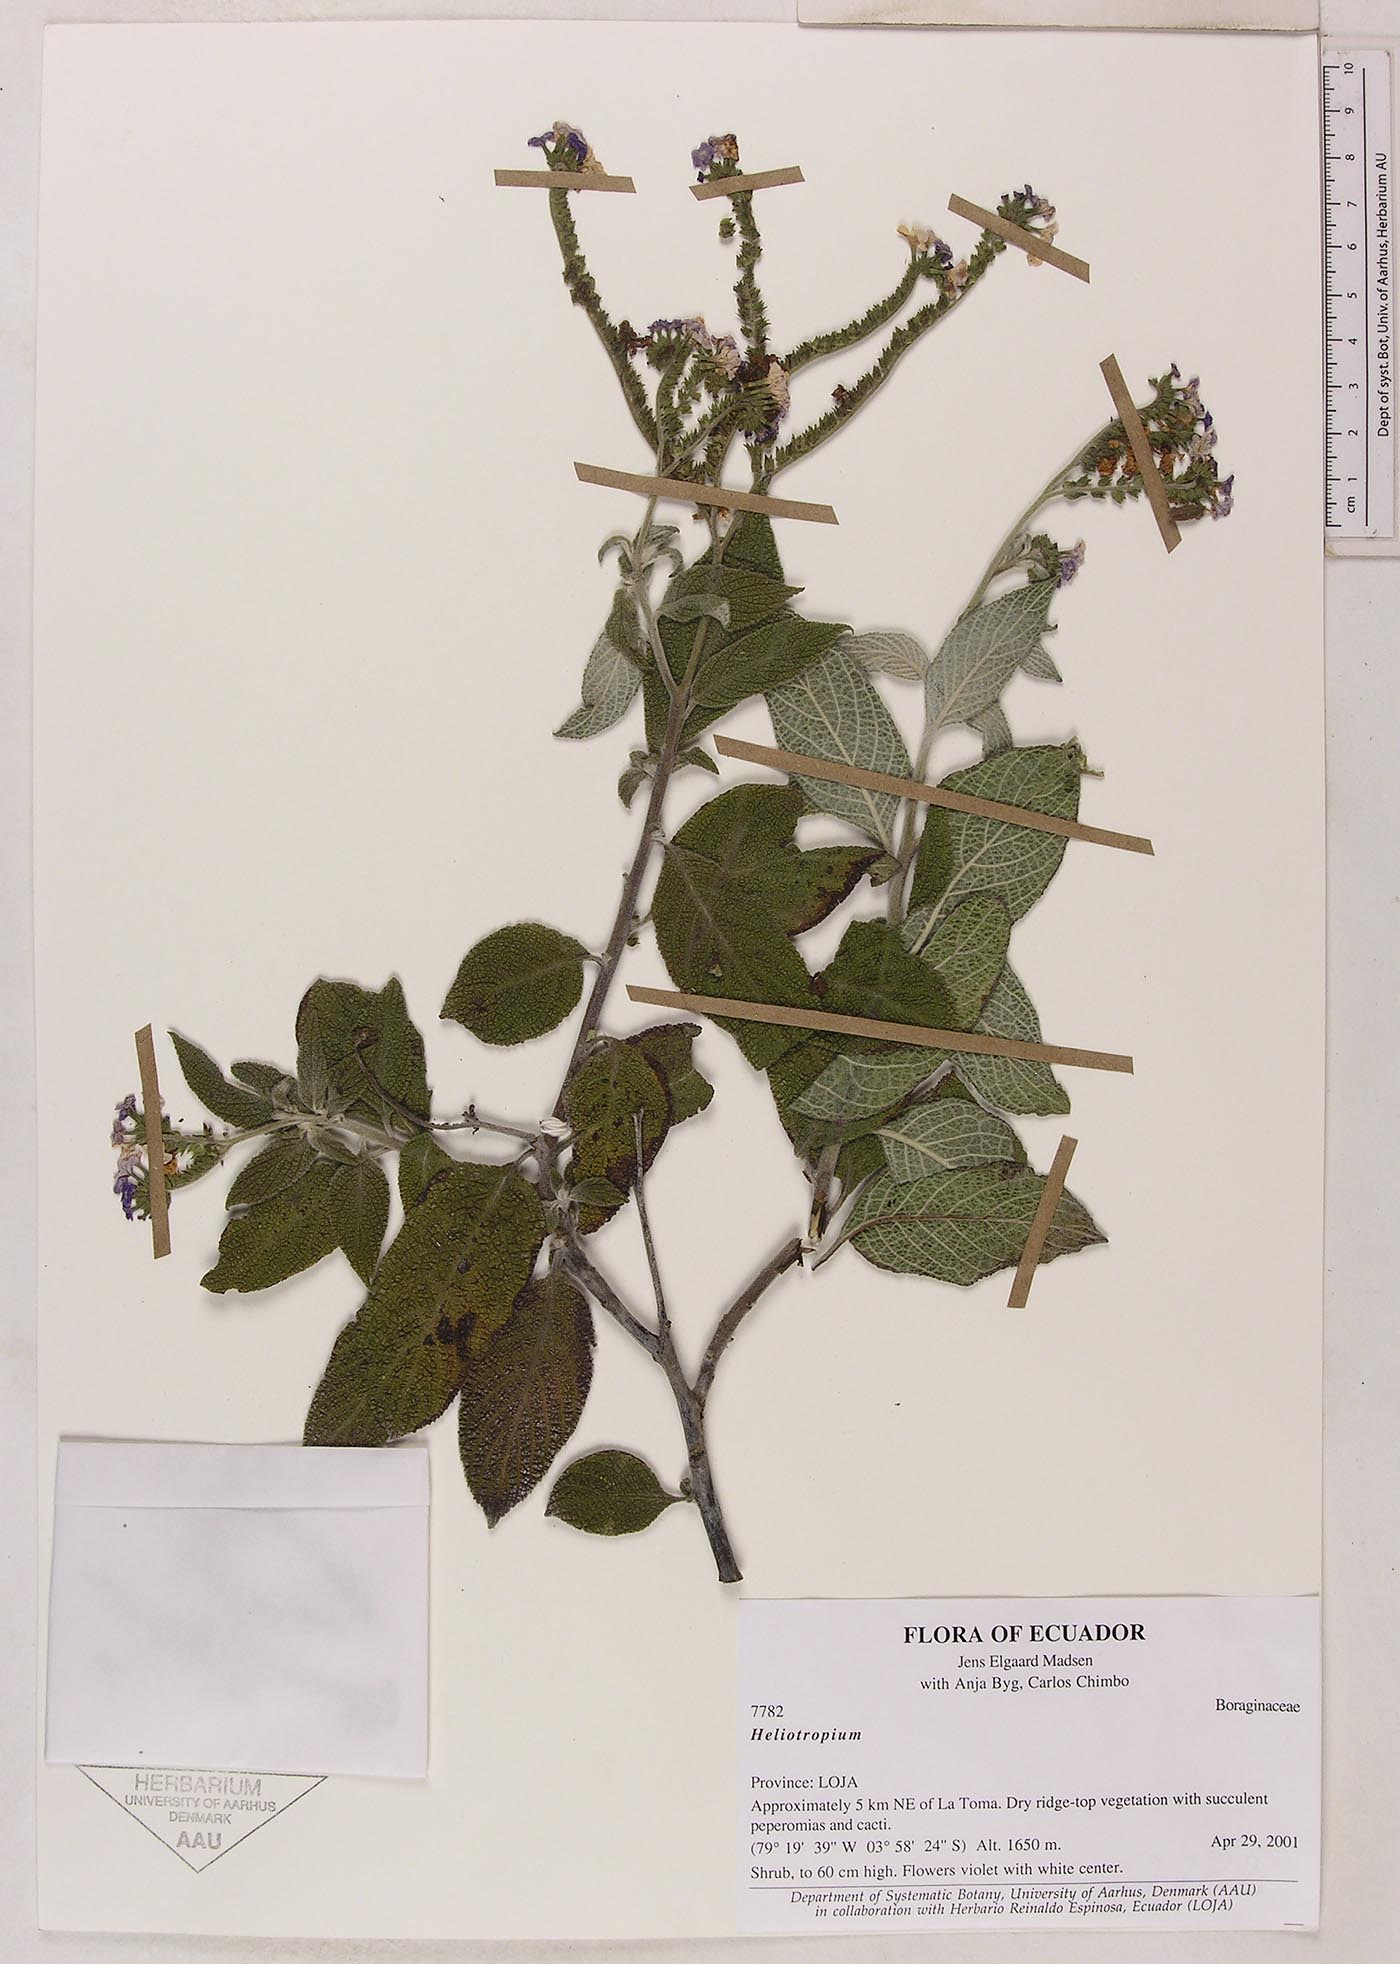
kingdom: Plantae
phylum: Tracheophyta
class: Magnoliopsida
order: Boraginales
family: Heliotropiaceae
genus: Heliotropium
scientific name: Heliotropium
